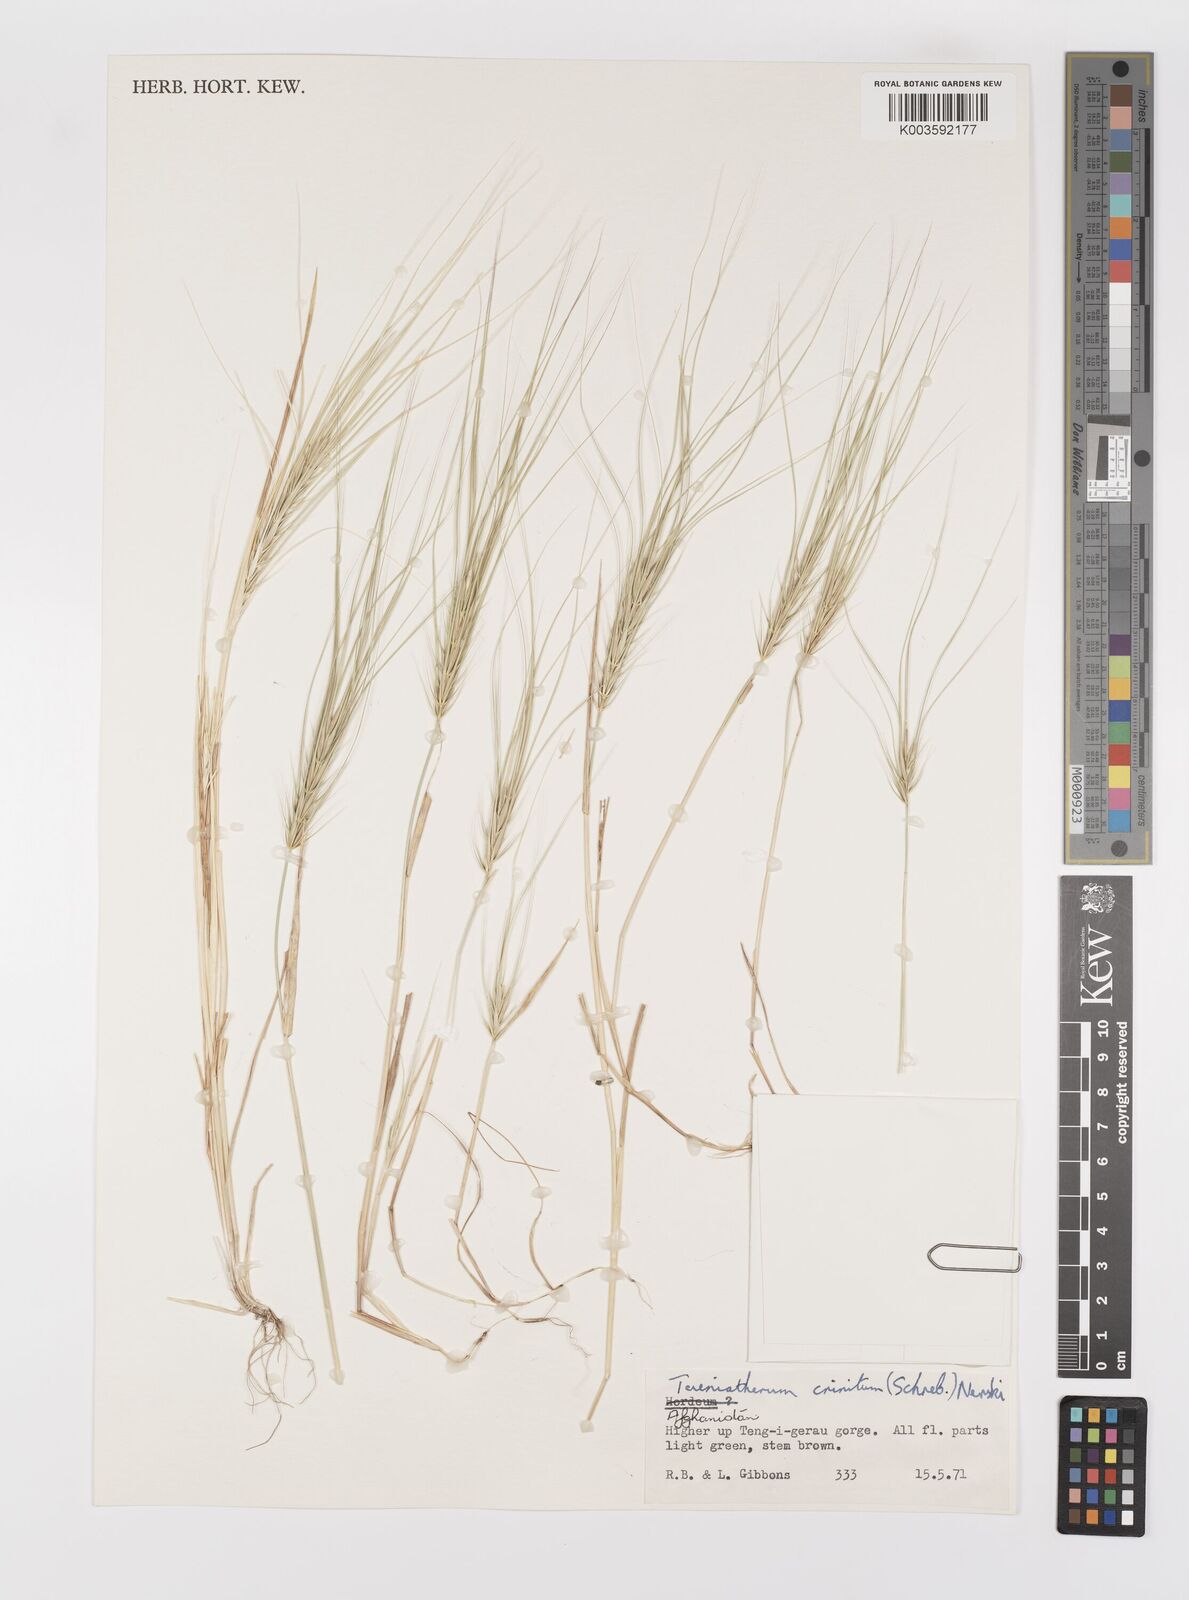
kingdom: Plantae
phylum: Tracheophyta
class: Liliopsida
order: Poales
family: Poaceae
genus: Taeniatherum
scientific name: Taeniatherum caput-medusae
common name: Medusahead
